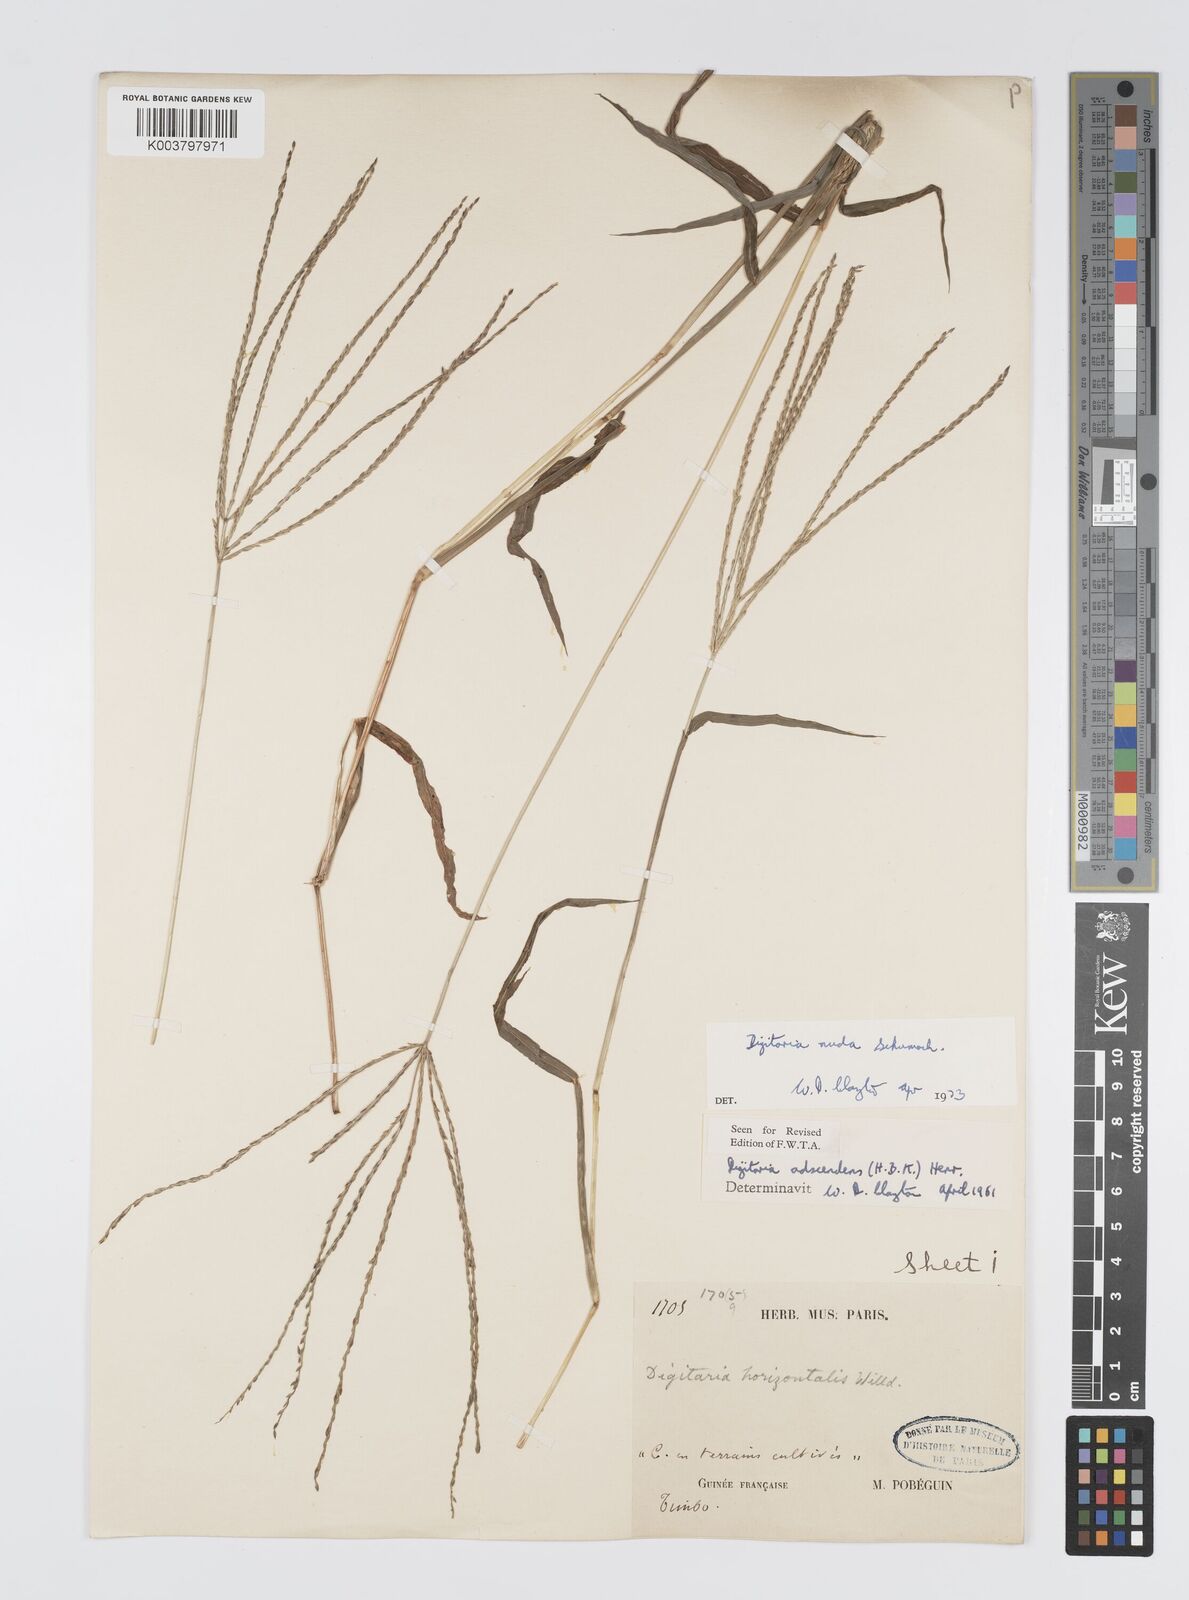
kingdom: Plantae
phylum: Tracheophyta
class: Liliopsida
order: Poales
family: Poaceae
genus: Digitaria
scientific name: Digitaria nuda
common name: Naked crabgrass
